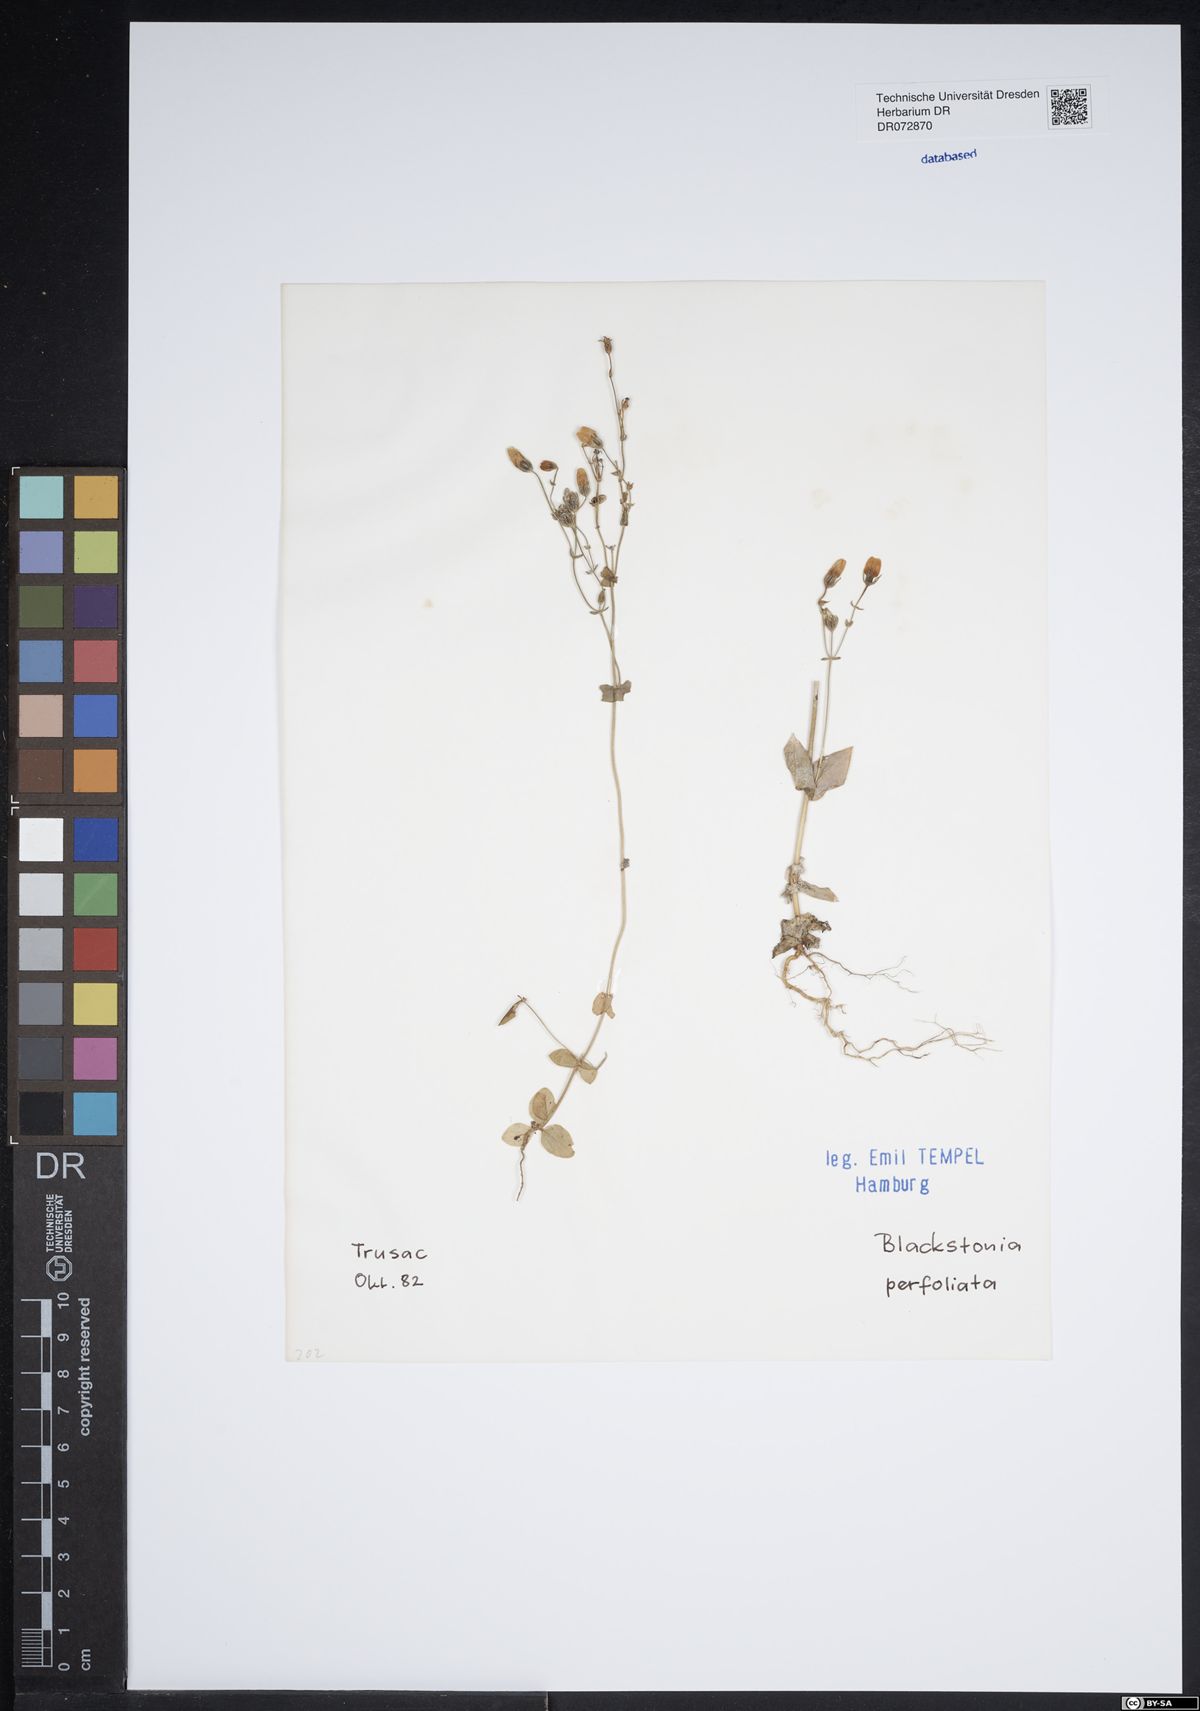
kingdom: Plantae
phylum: Tracheophyta
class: Magnoliopsida
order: Gentianales
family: Gentianaceae
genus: Blackstonia
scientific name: Blackstonia perfoliata
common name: Yellow-wort
